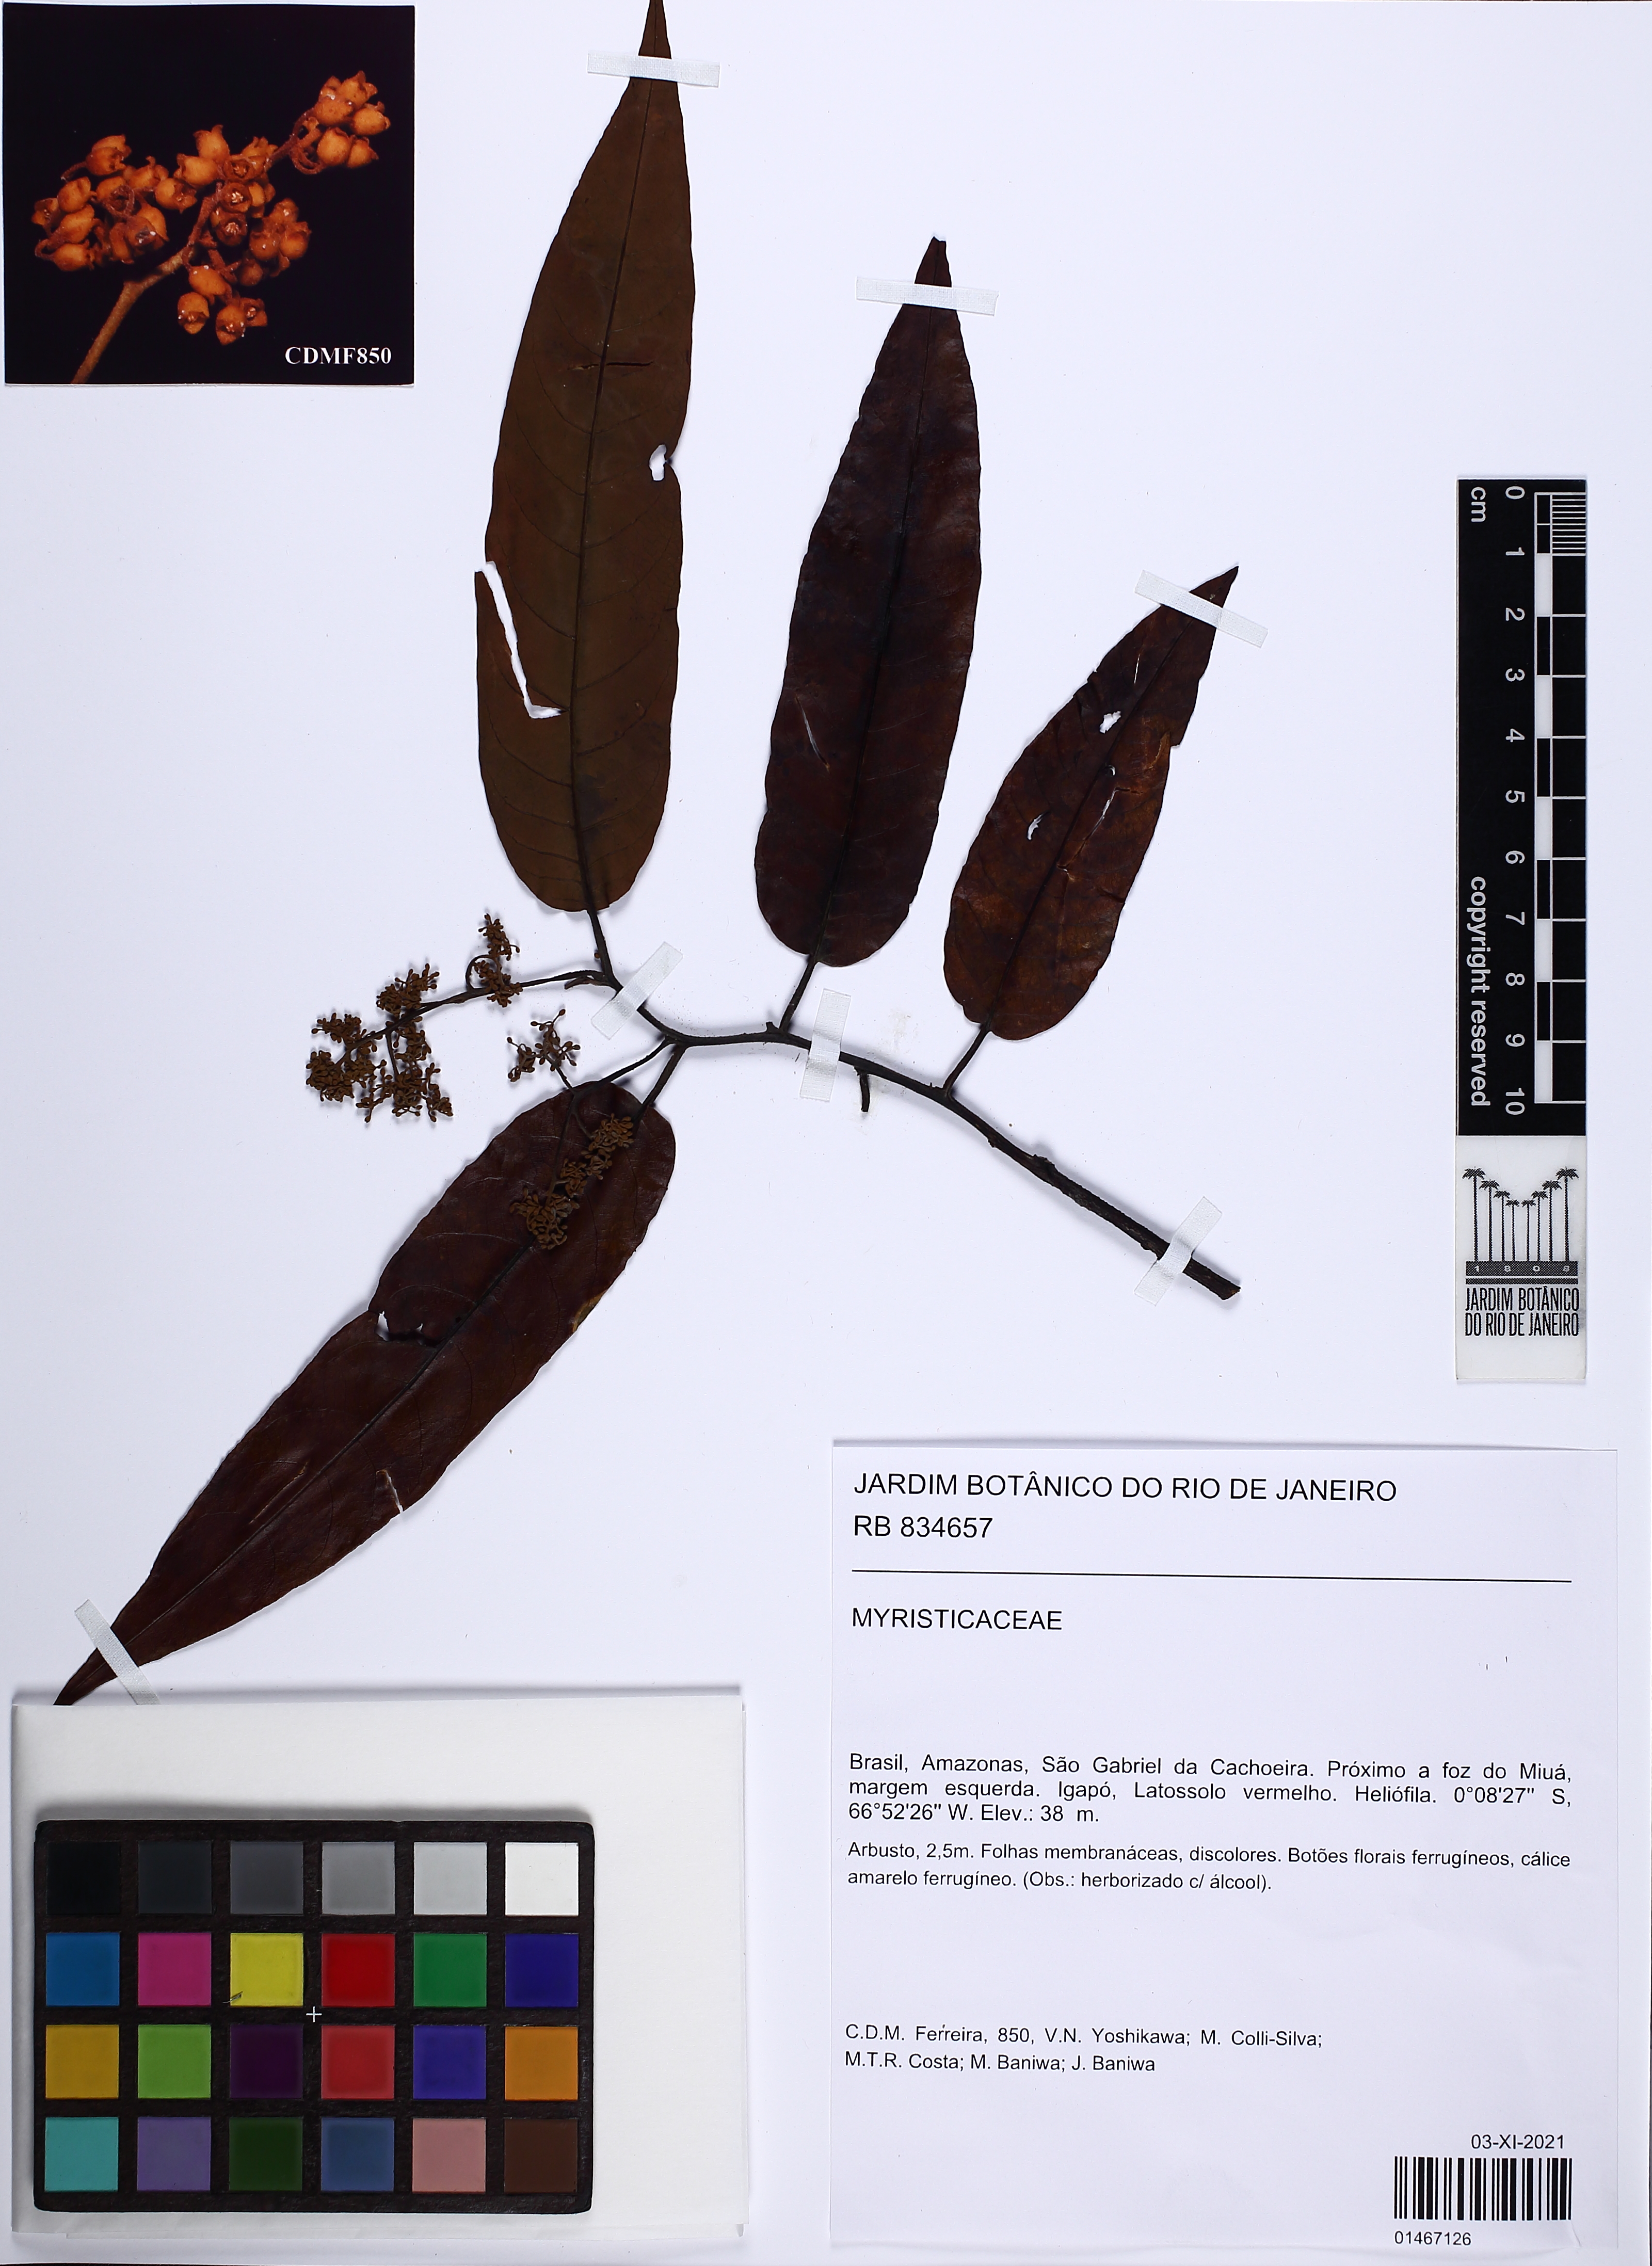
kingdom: Plantae
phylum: Tracheophyta
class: Magnoliopsida
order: Magnoliales
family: Myristicaceae
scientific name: Myristicaceae
